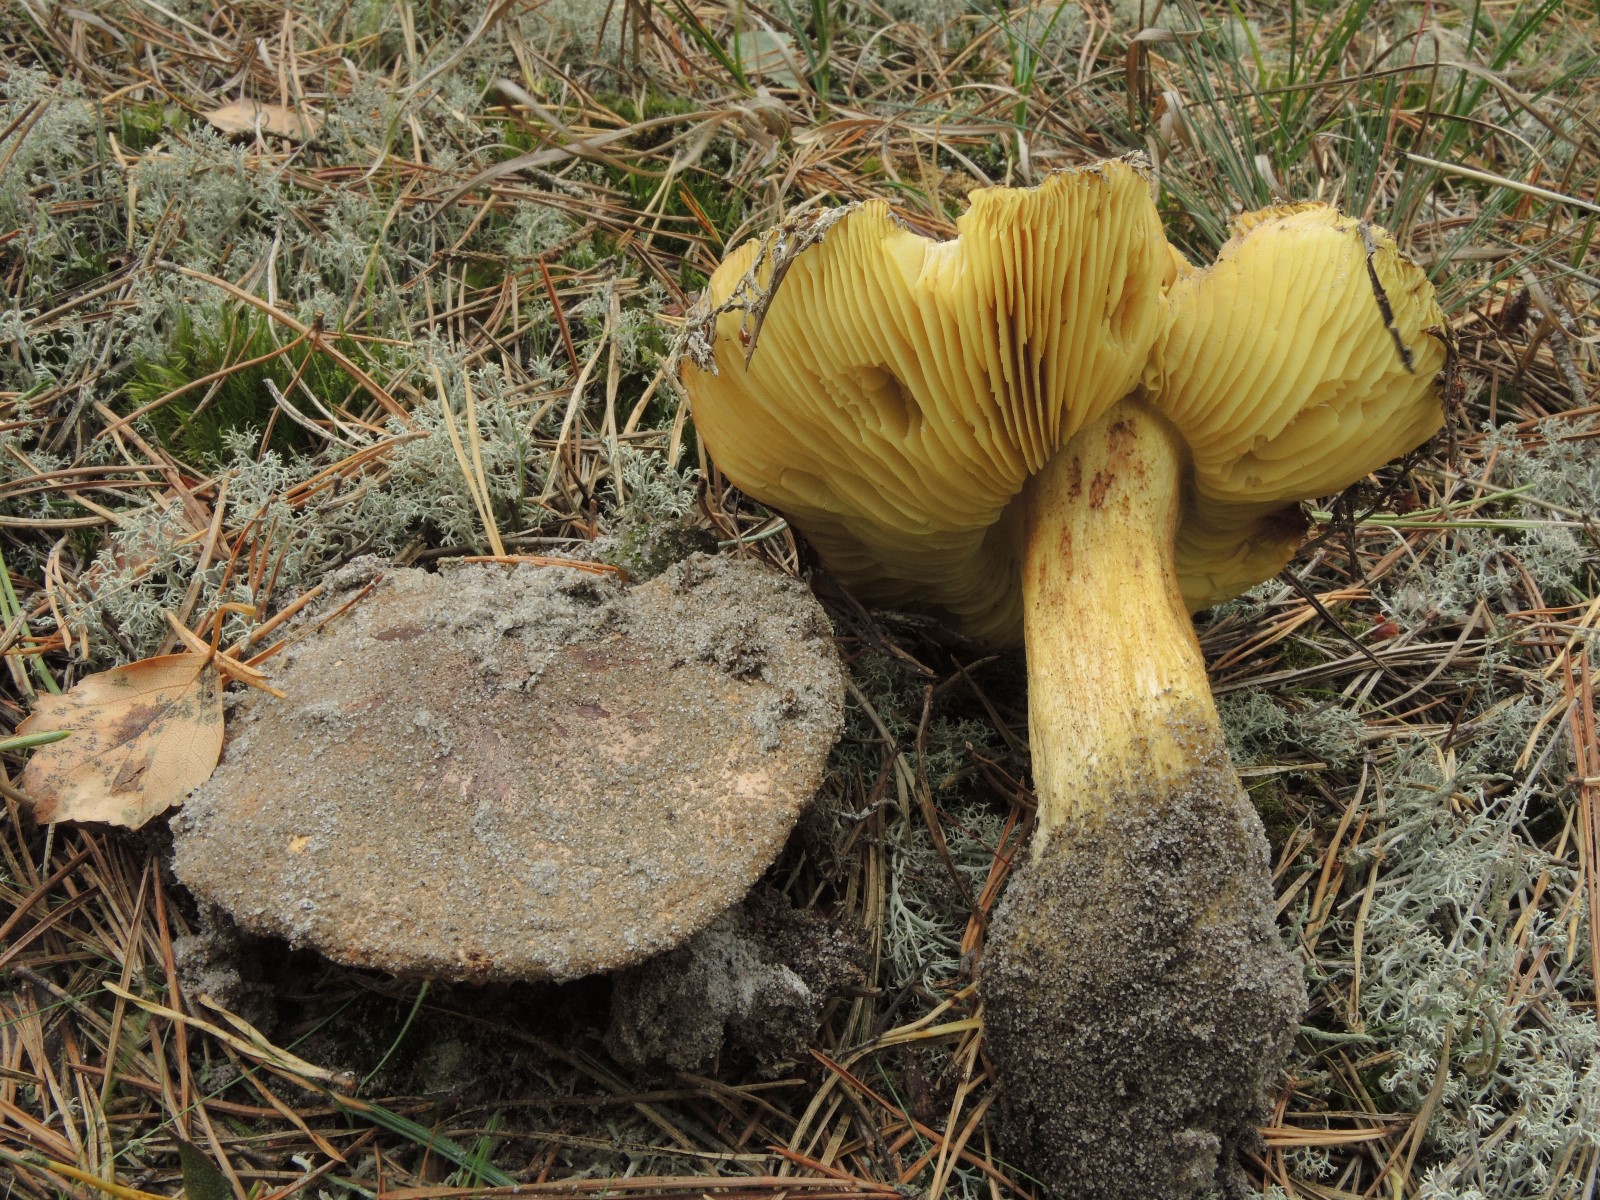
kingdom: Fungi
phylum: Basidiomycota
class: Agaricomycetes
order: Agaricales
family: Tricholomataceae
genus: Tricholoma
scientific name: Tricholoma equestre
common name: ægte ridderhat
